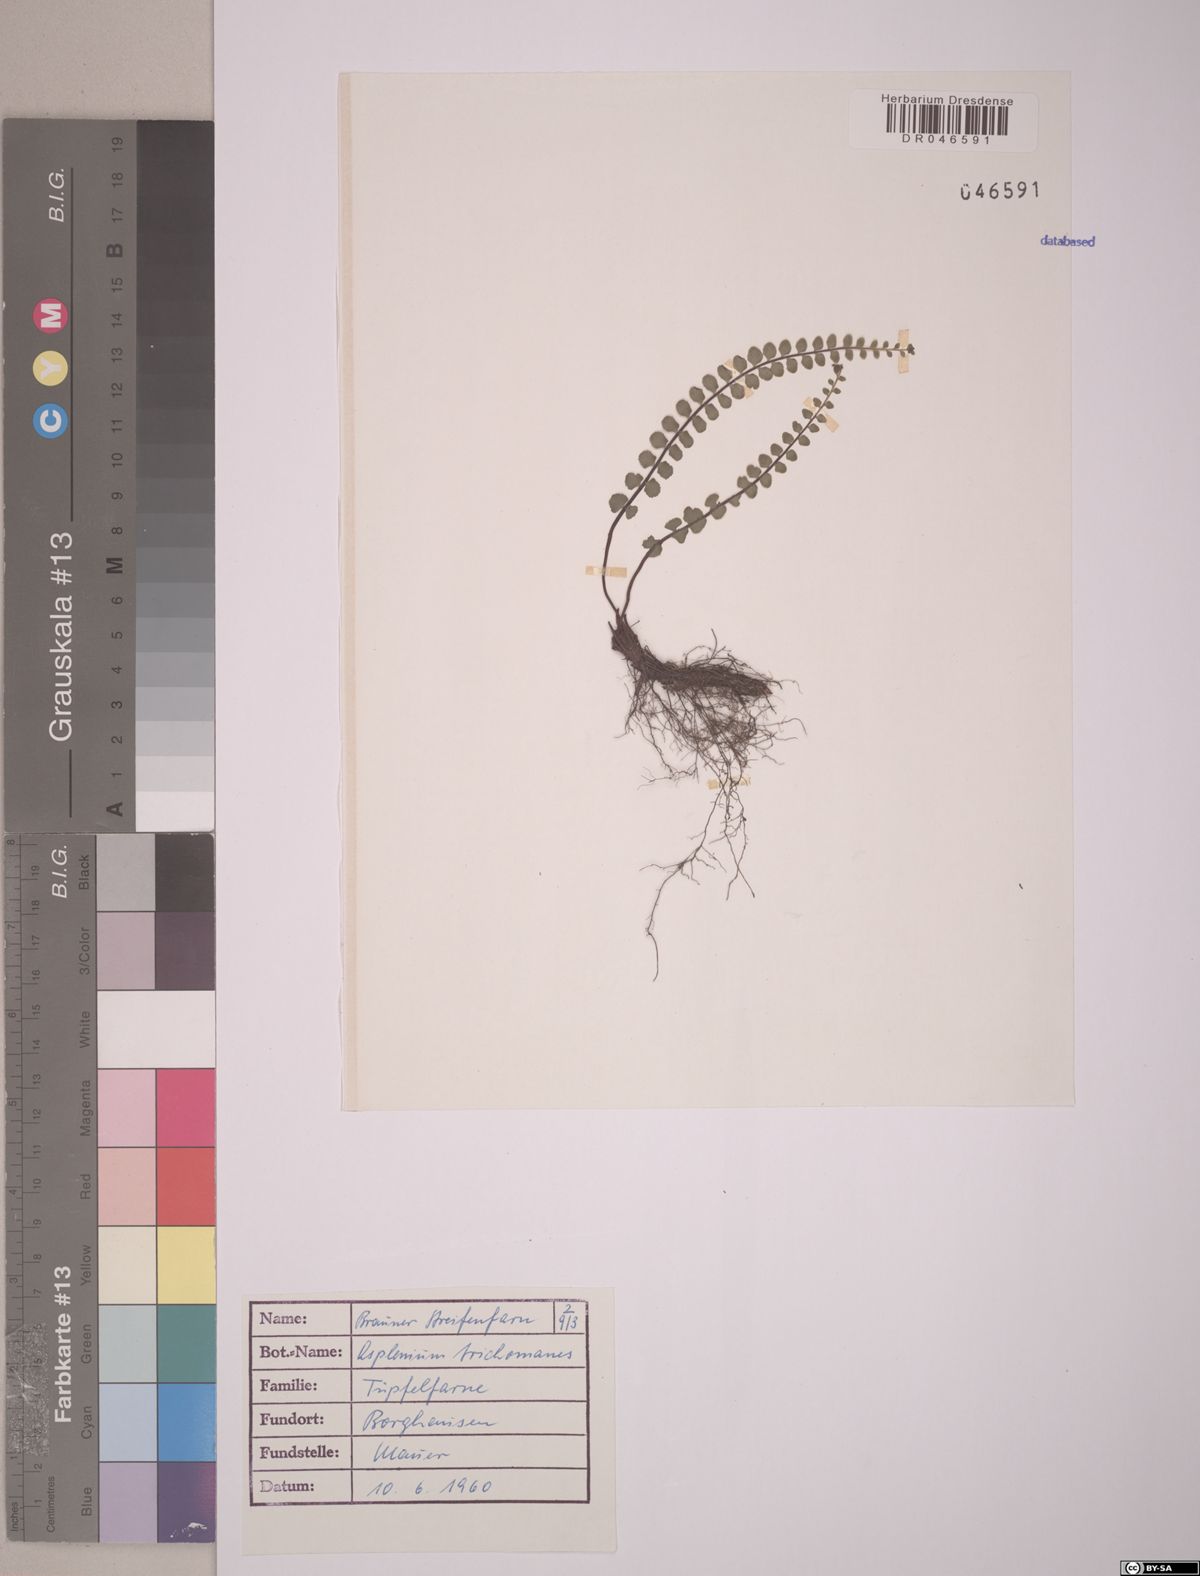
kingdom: Plantae
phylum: Tracheophyta
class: Polypodiopsida
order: Polypodiales
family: Aspleniaceae
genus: Asplenium
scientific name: Asplenium trichomanes
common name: Maidenhair spleenwort
